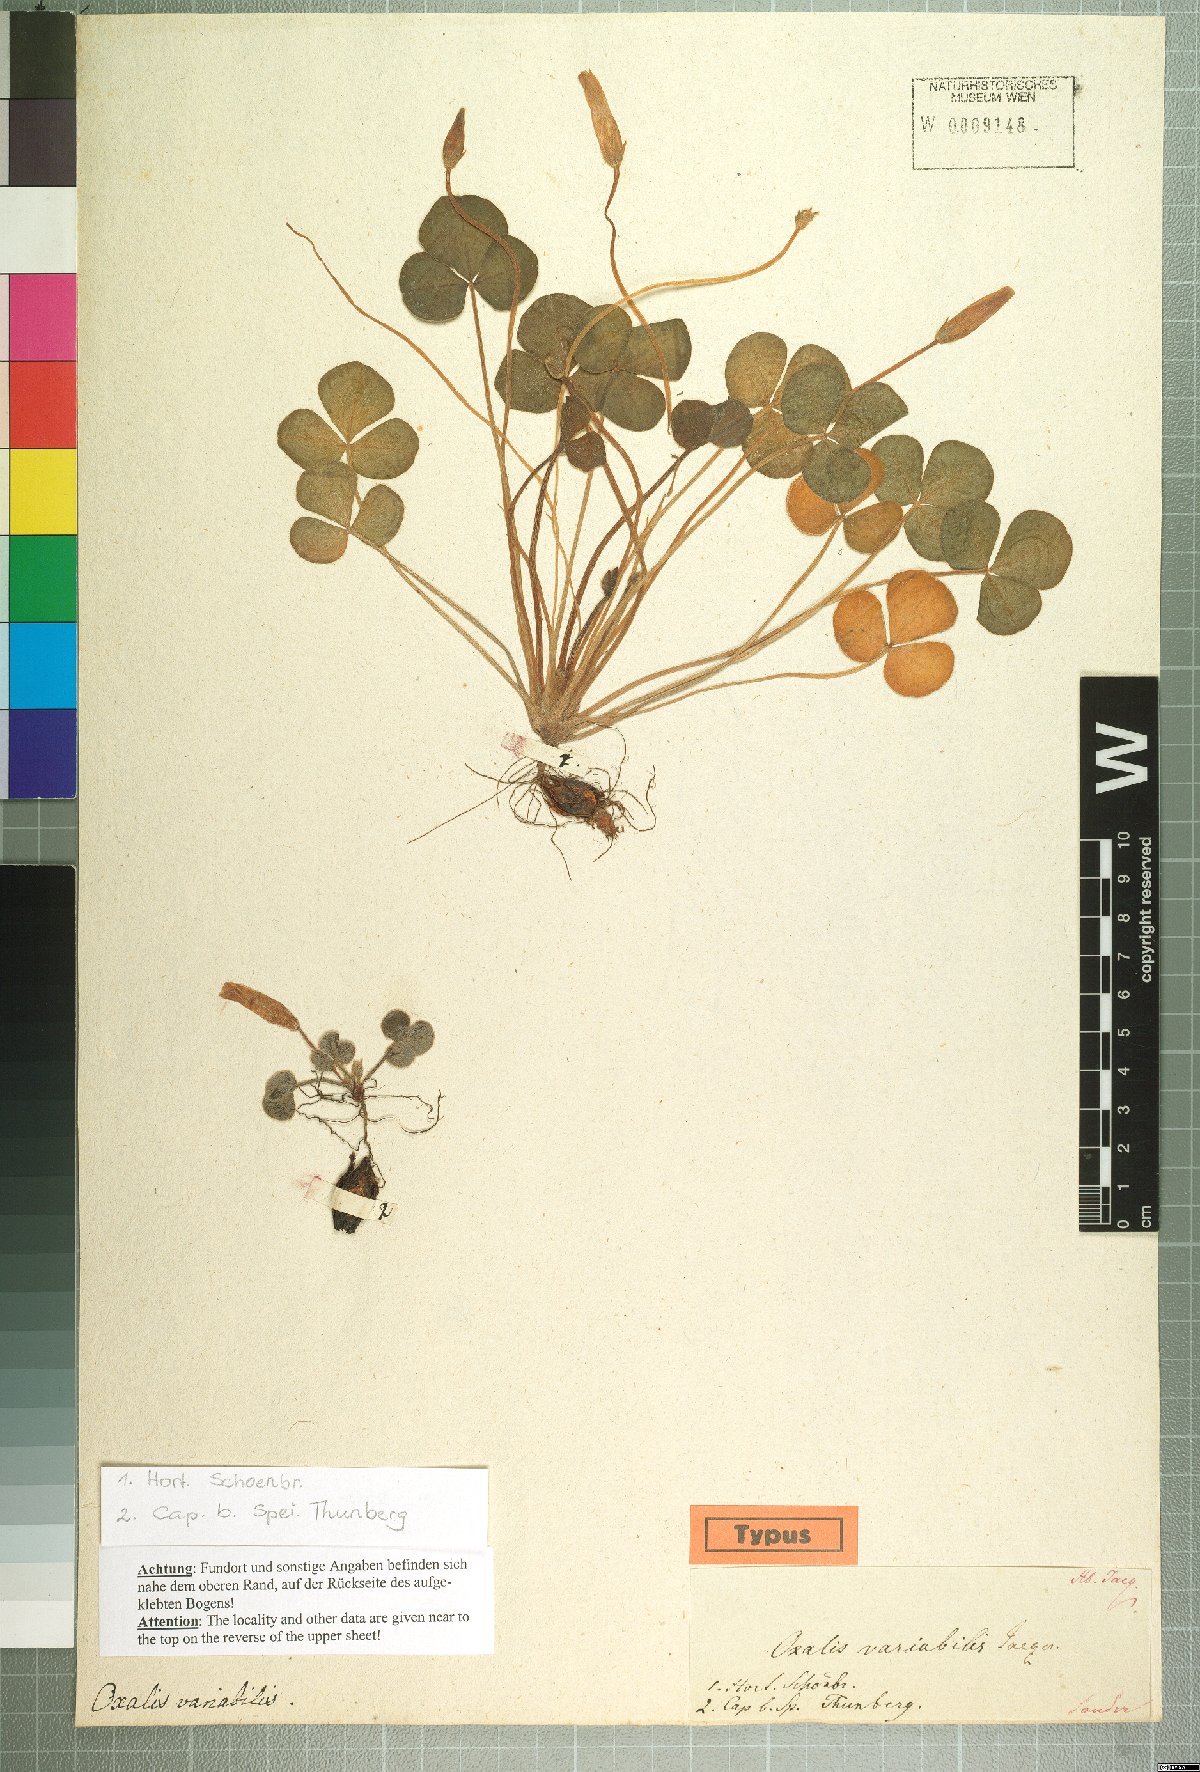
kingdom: Plantae
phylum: Tracheophyta
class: Magnoliopsida
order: Oxalidales
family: Oxalidaceae
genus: Oxalis
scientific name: Oxalis purpurea
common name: Purple woodsorrel
